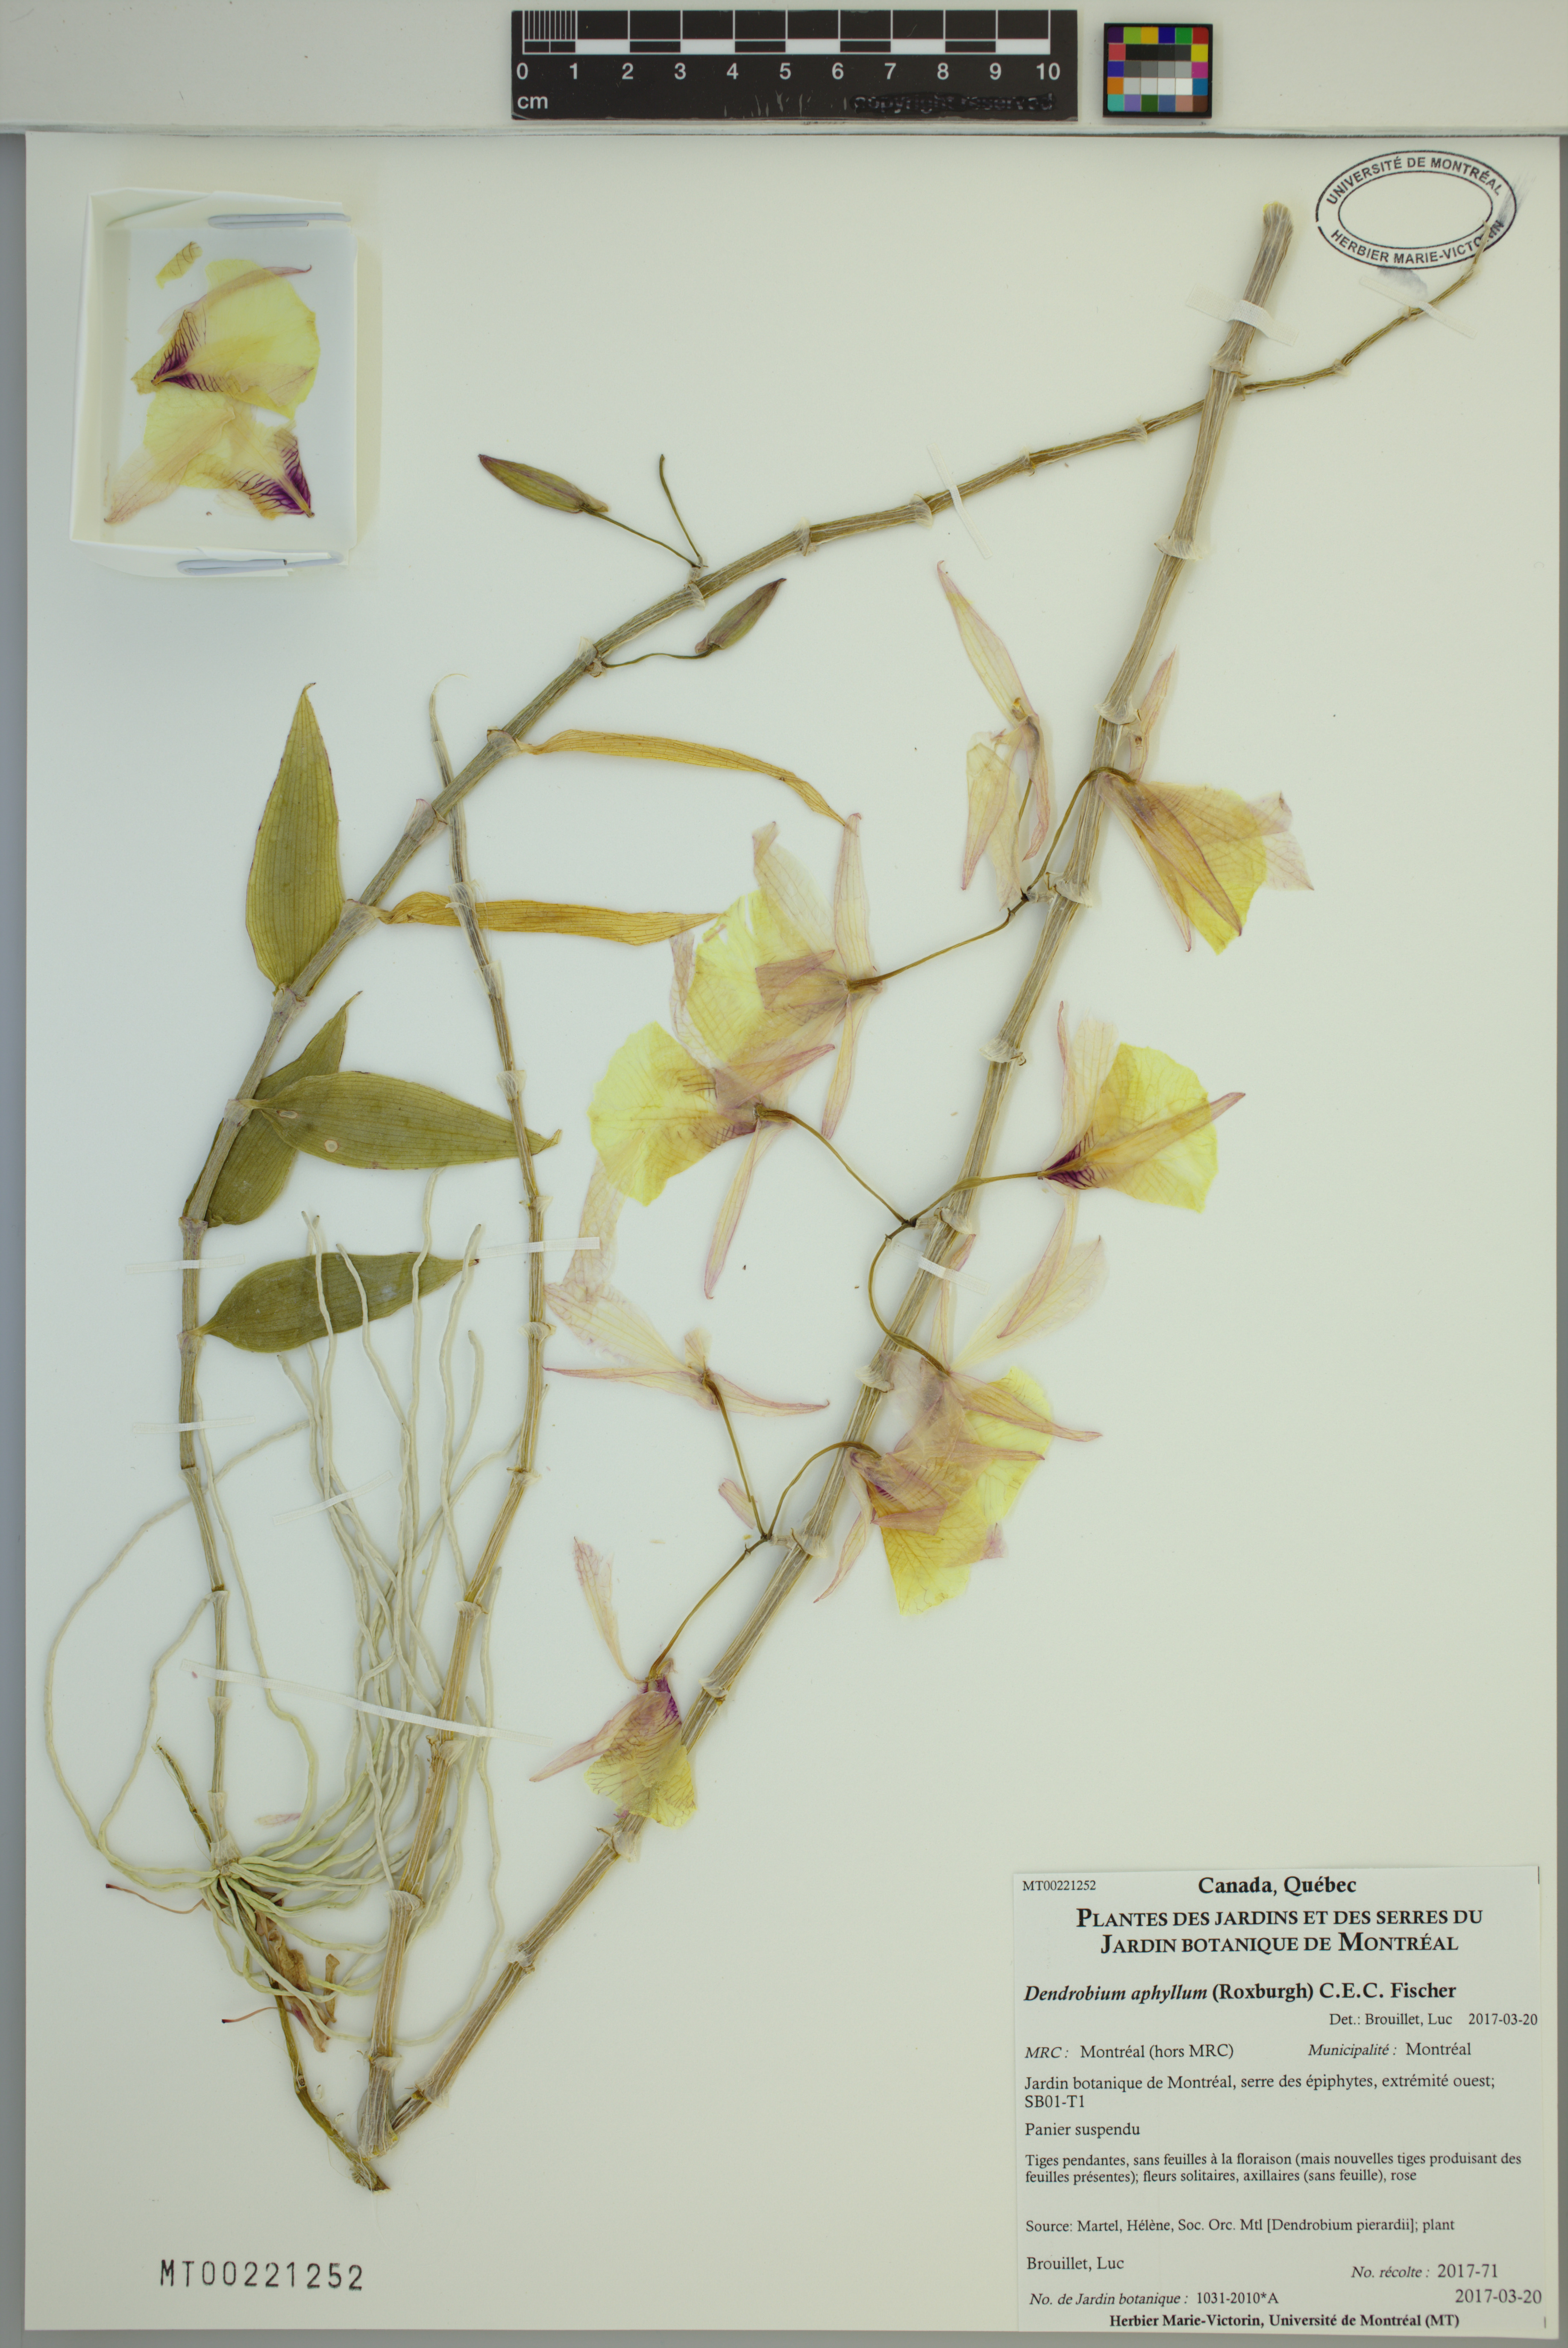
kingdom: Plantae
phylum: Tracheophyta
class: Liliopsida
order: Asparagales
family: Orchidaceae
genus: Dendrobium
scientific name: Dendrobium aphyllum
